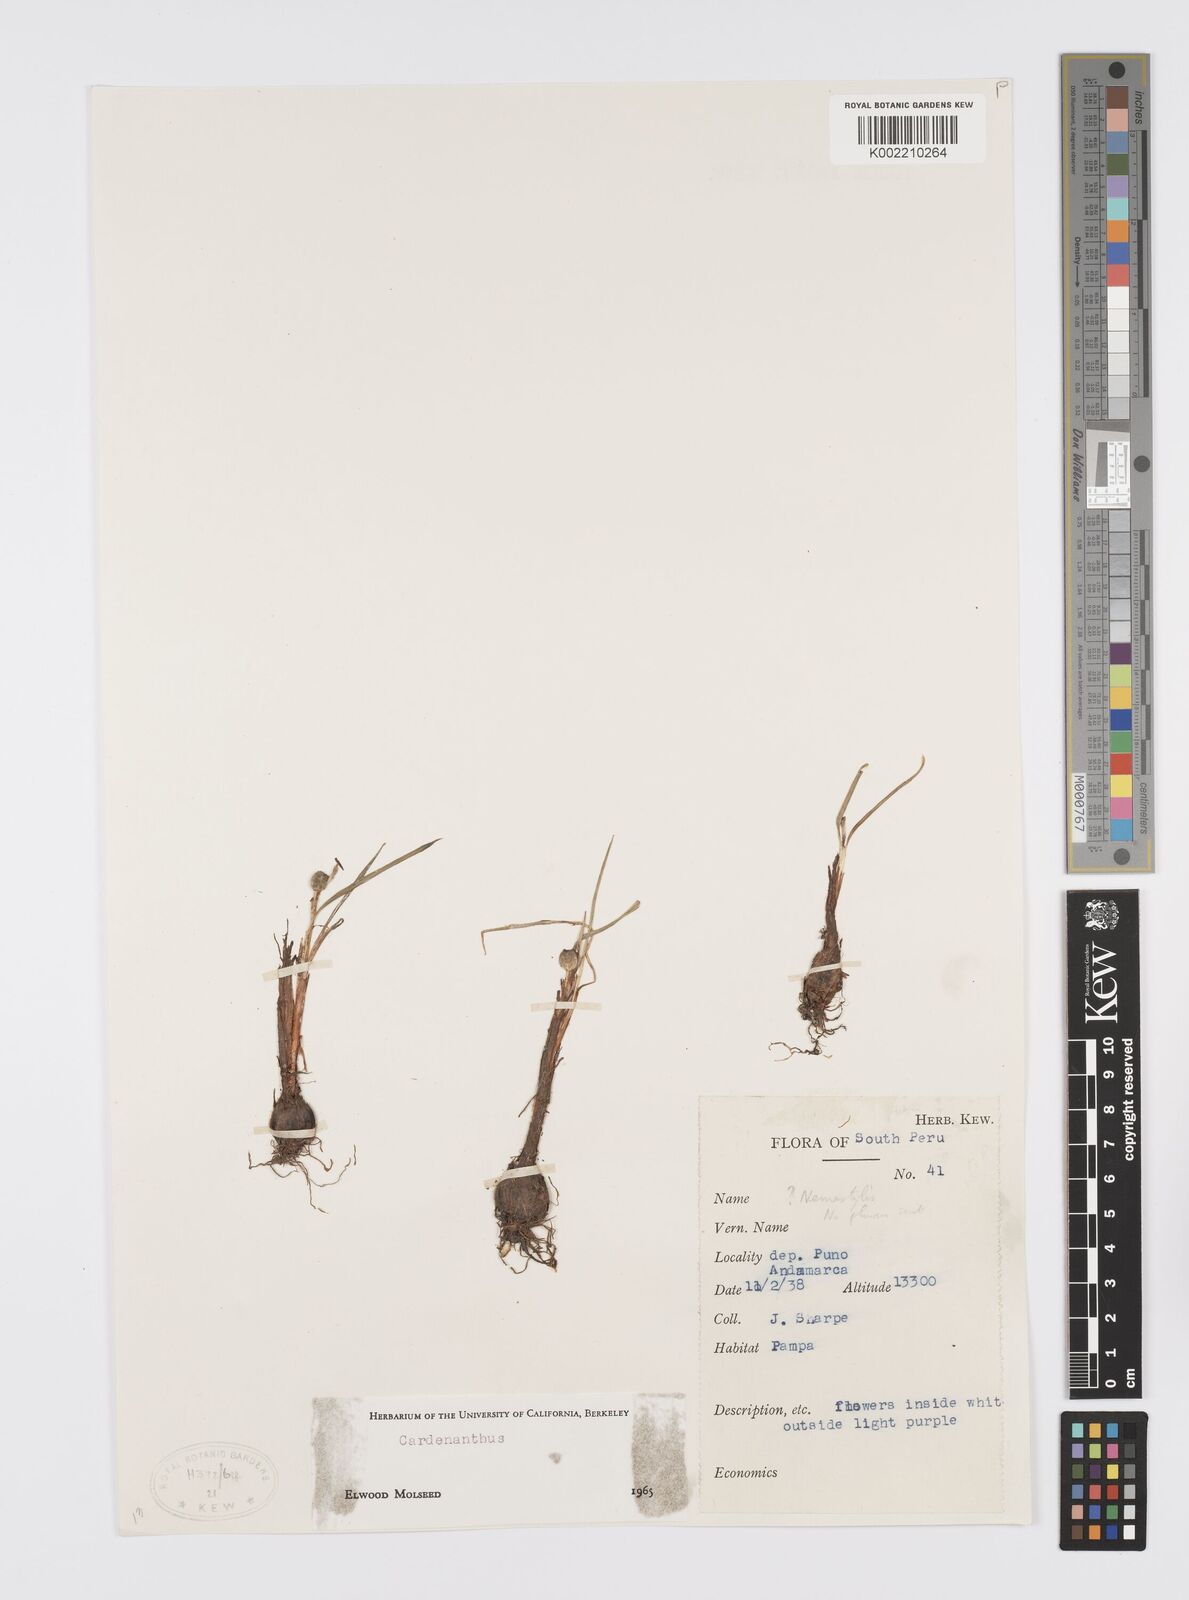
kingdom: Plantae
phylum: Tracheophyta
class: Liliopsida
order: Asparagales
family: Iridaceae
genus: Mastigostyla
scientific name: Mastigostyla
